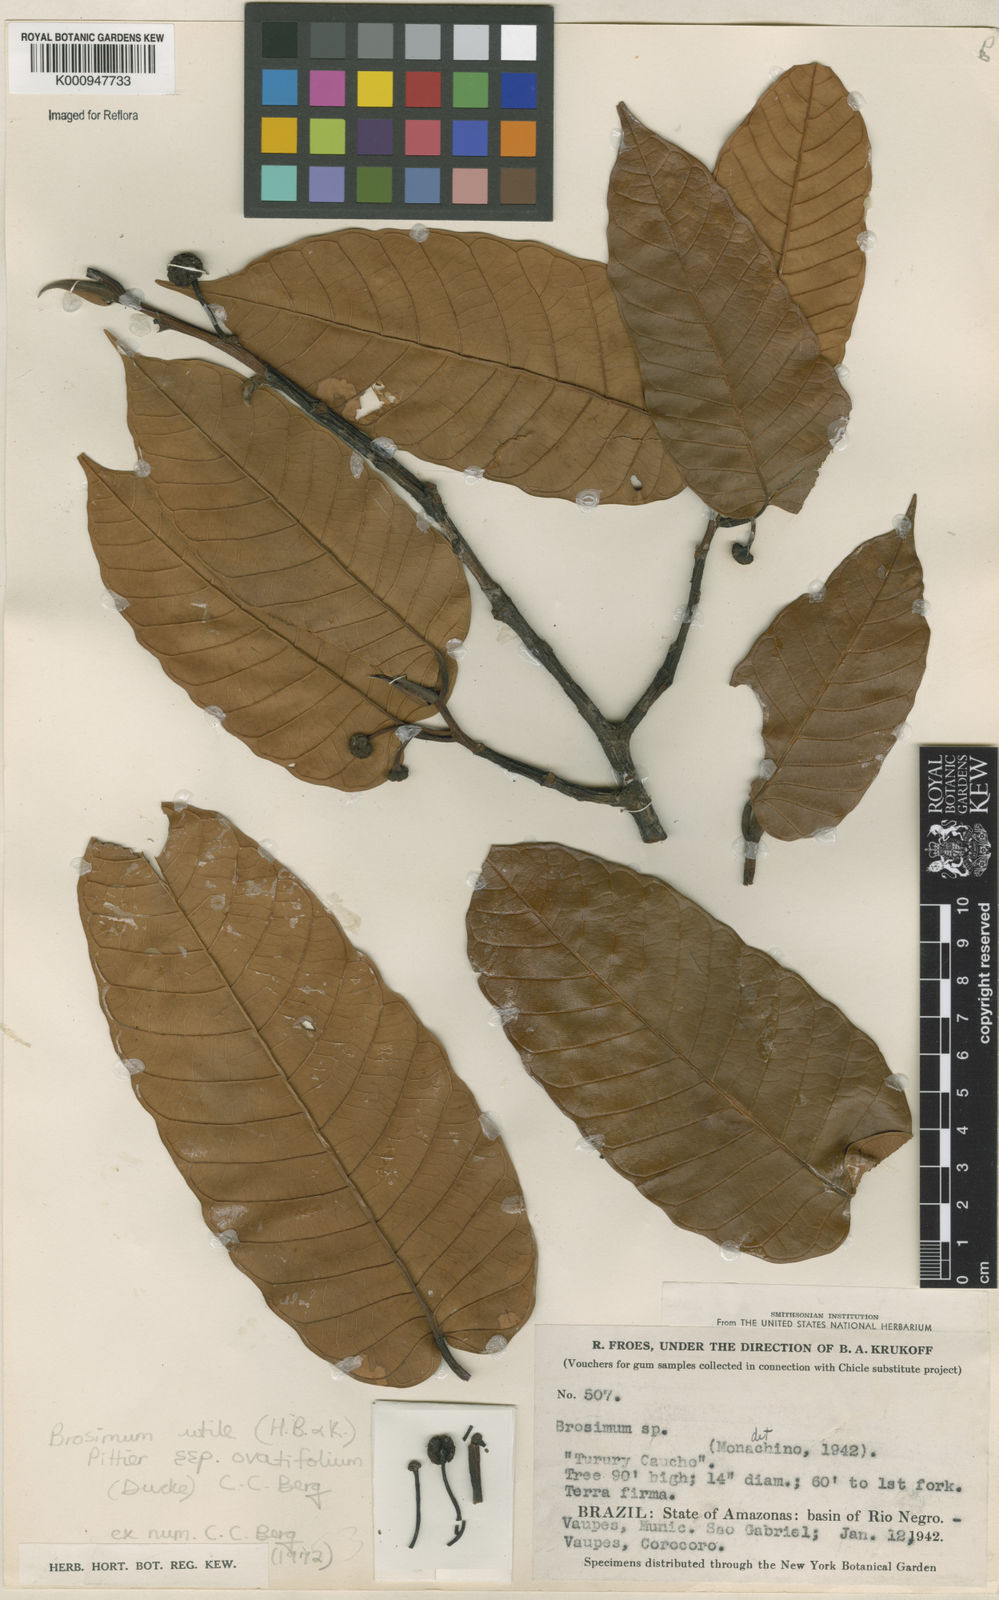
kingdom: Plantae
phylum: Tracheophyta
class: Magnoliopsida
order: Rosales
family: Moraceae
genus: Brosimum
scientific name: Brosimum utile
